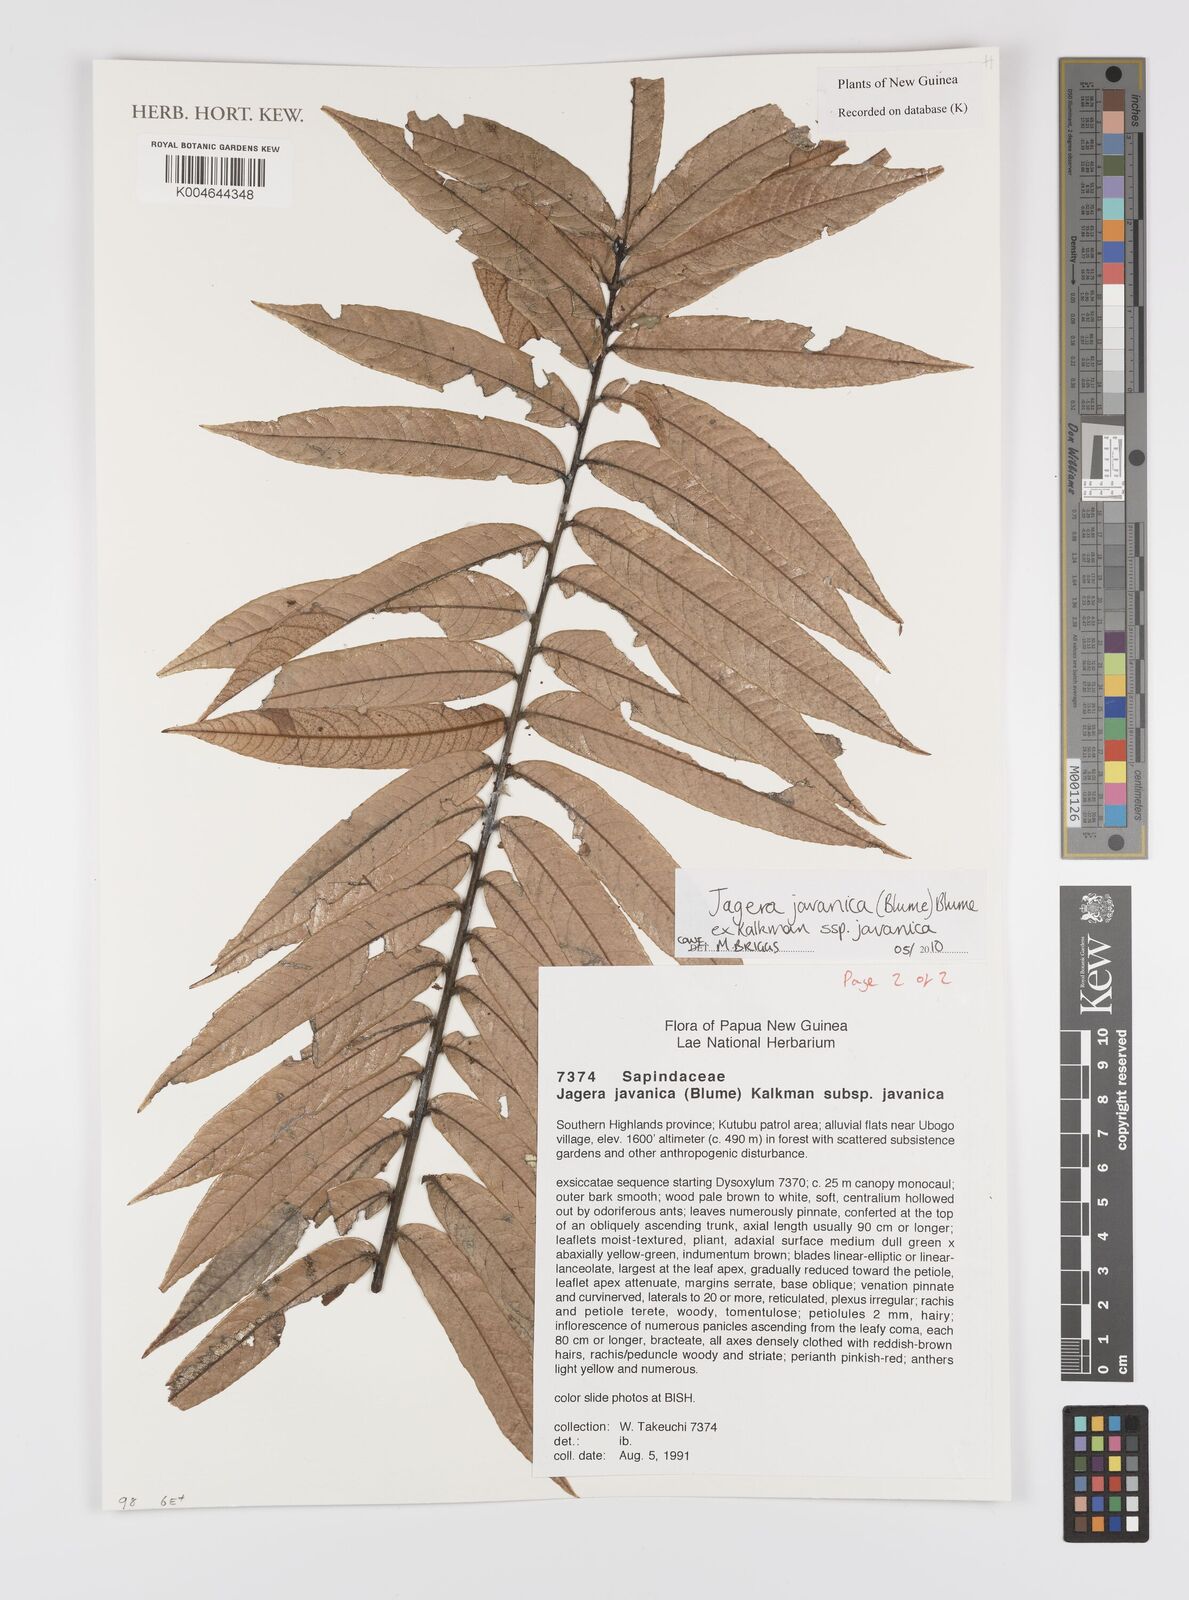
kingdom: Plantae
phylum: Tracheophyta
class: Magnoliopsida
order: Sapindales
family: Sapindaceae
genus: Jagera
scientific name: Jagera javanica
